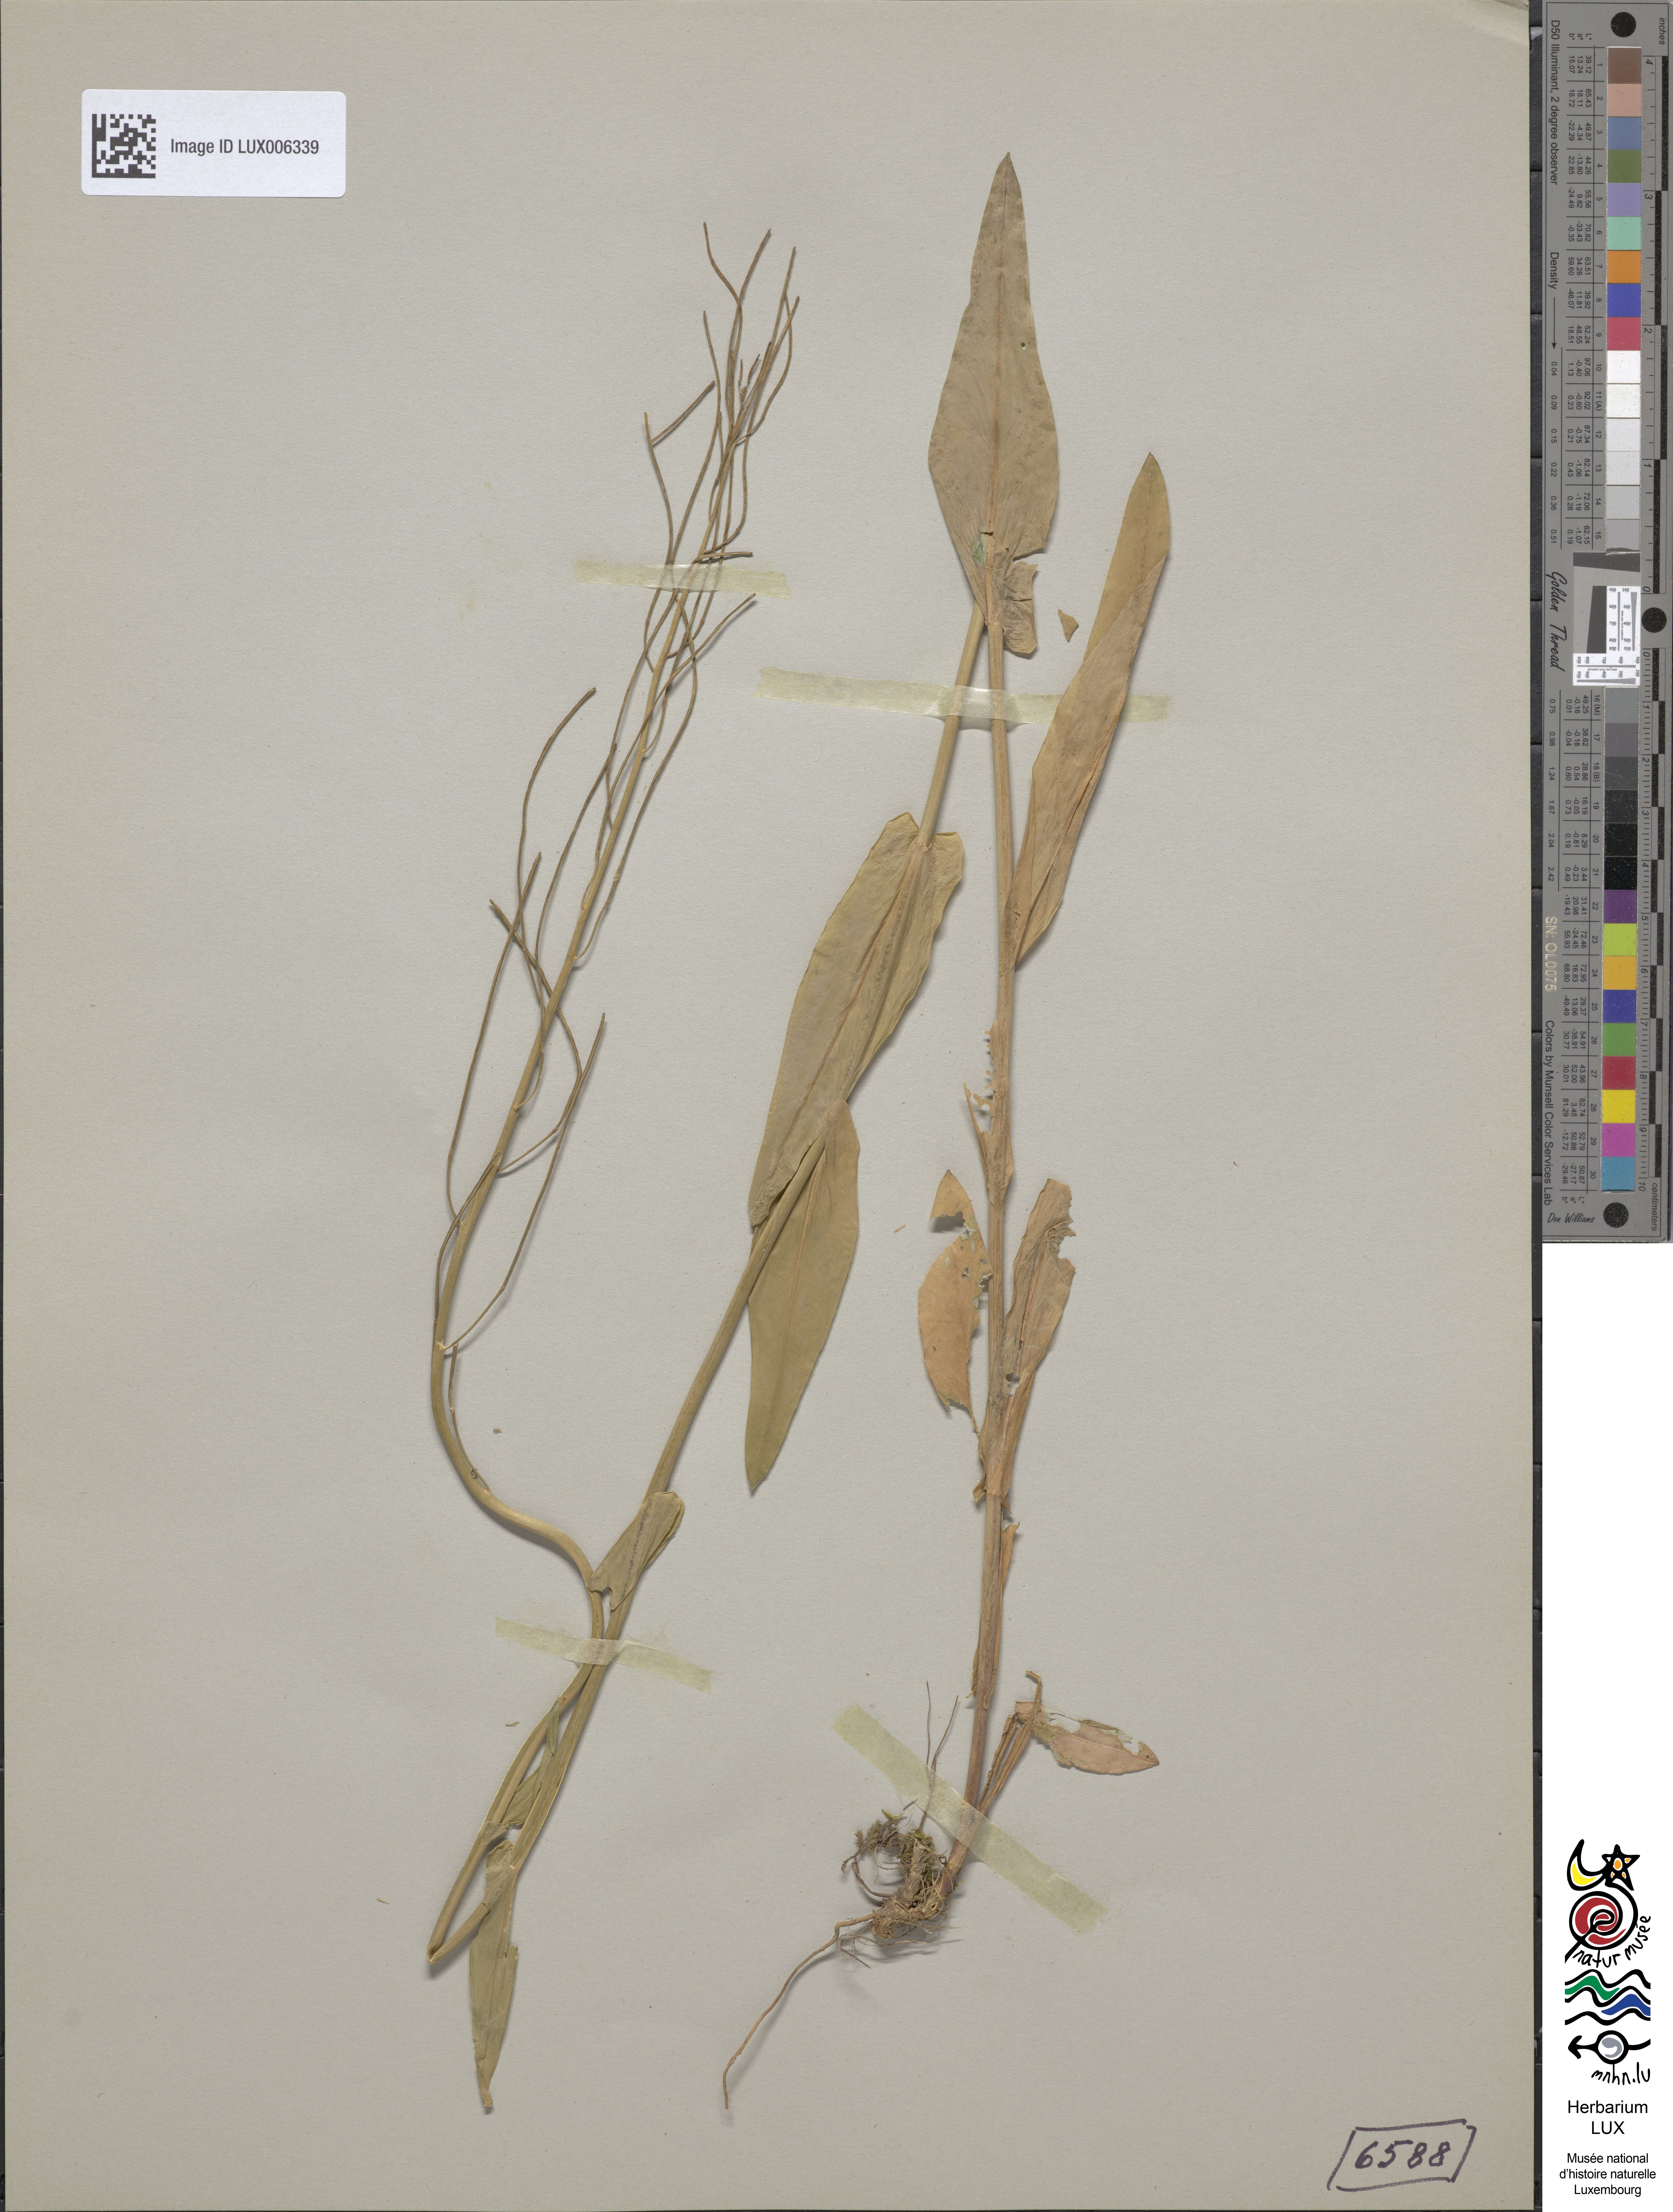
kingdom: Plantae
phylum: Tracheophyta
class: Magnoliopsida
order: Brassicales
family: Brassicaceae
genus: Fourraea
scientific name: Fourraea alpina
